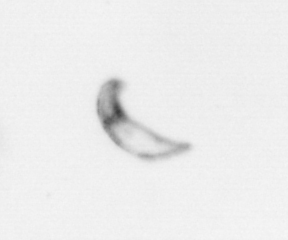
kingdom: Chromista
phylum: Ochrophyta
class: Bacillariophyceae
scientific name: Bacillariophyceae
